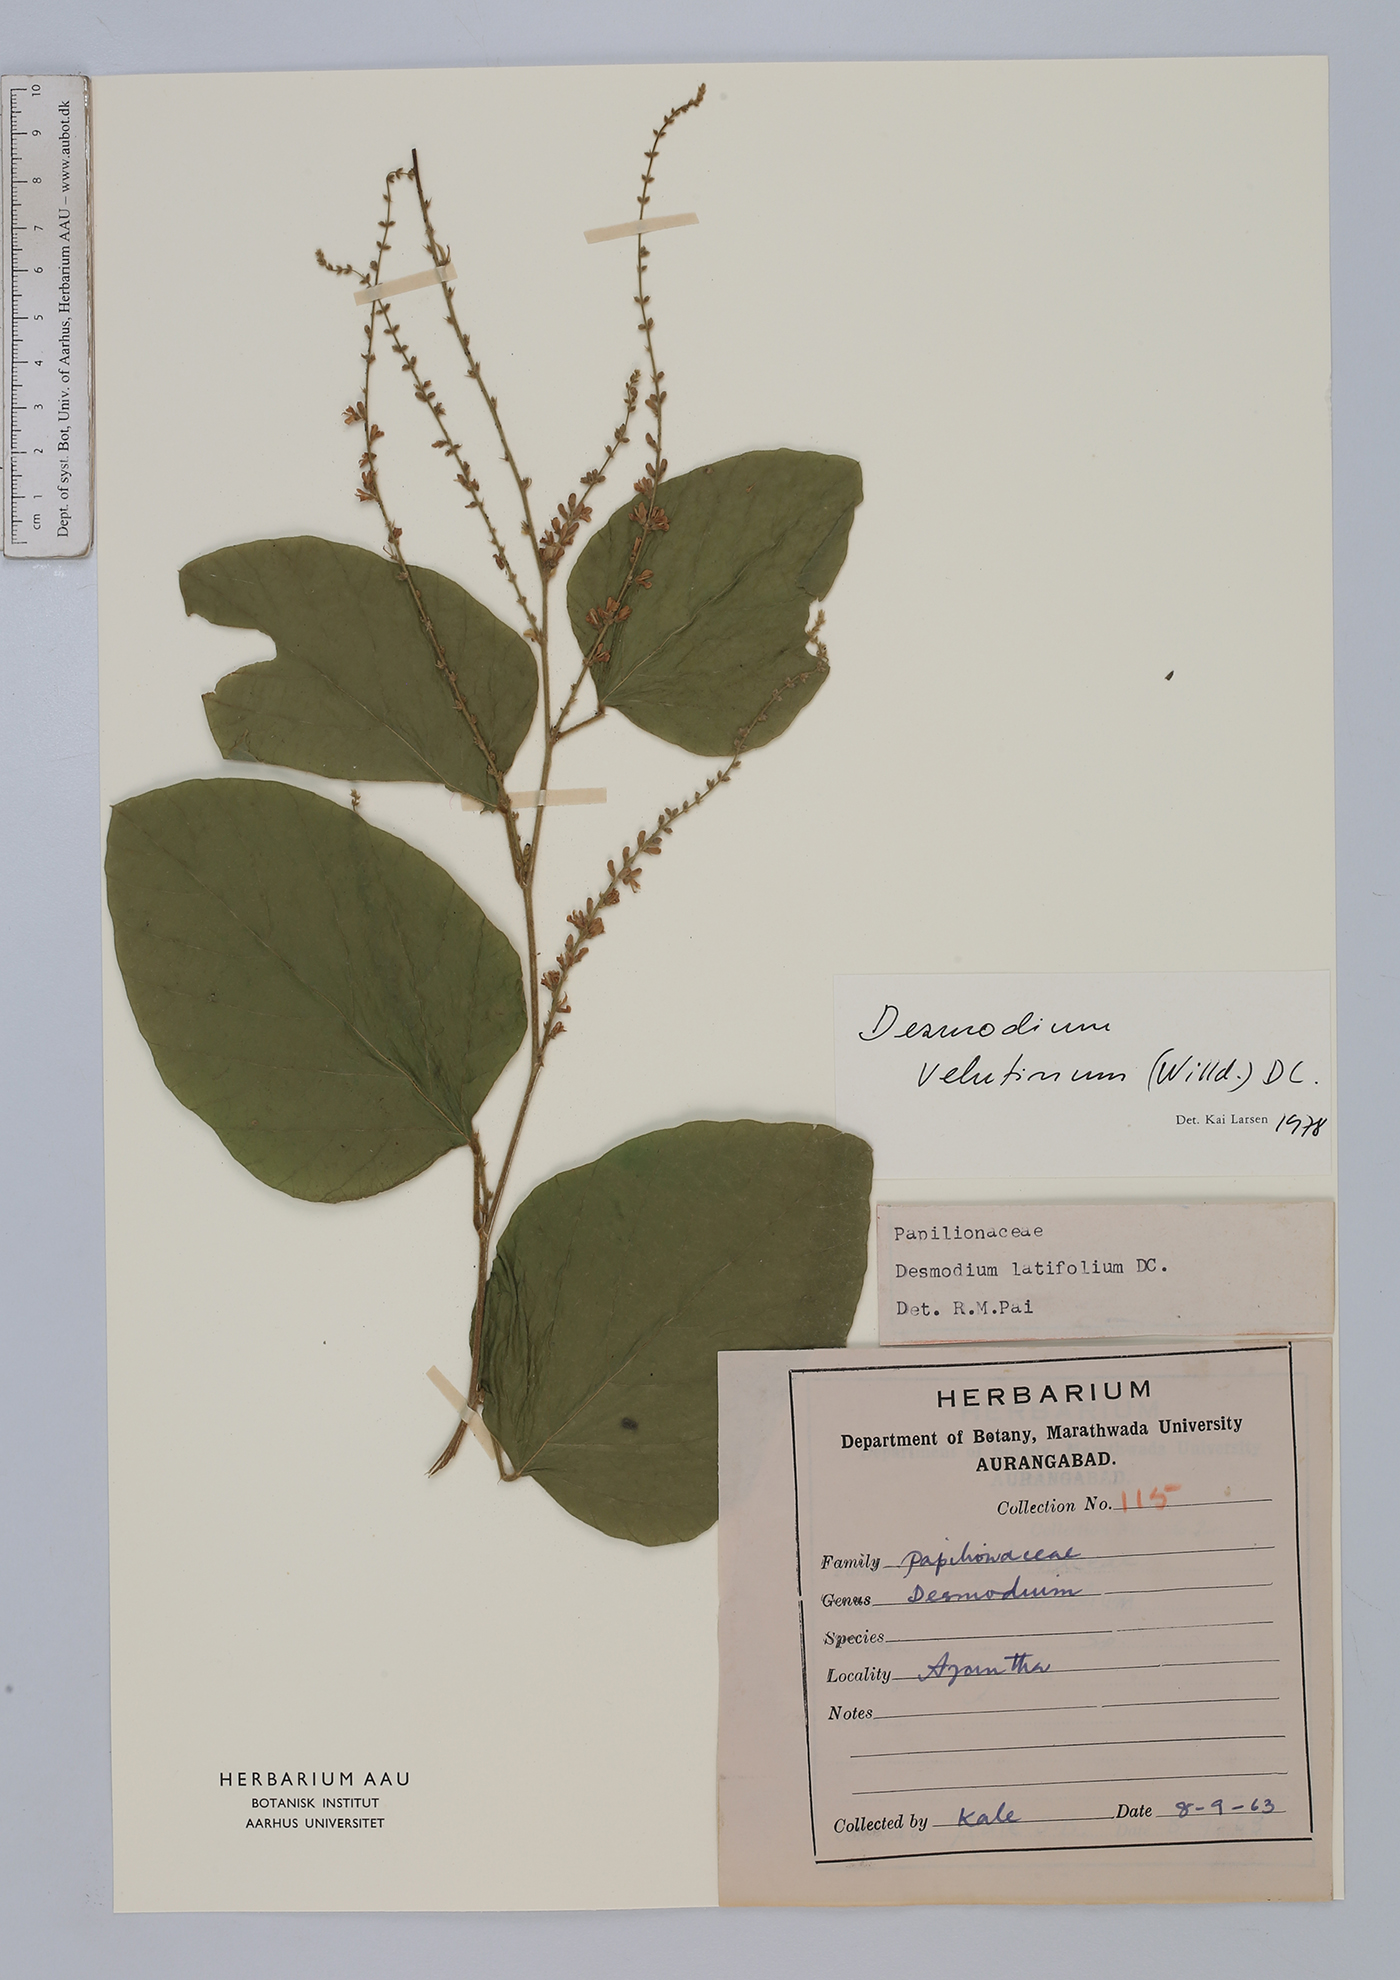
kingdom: Plantae
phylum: Tracheophyta
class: Magnoliopsida
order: Fabales
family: Fabaceae
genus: Polhillides
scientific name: Polhillides velutina
